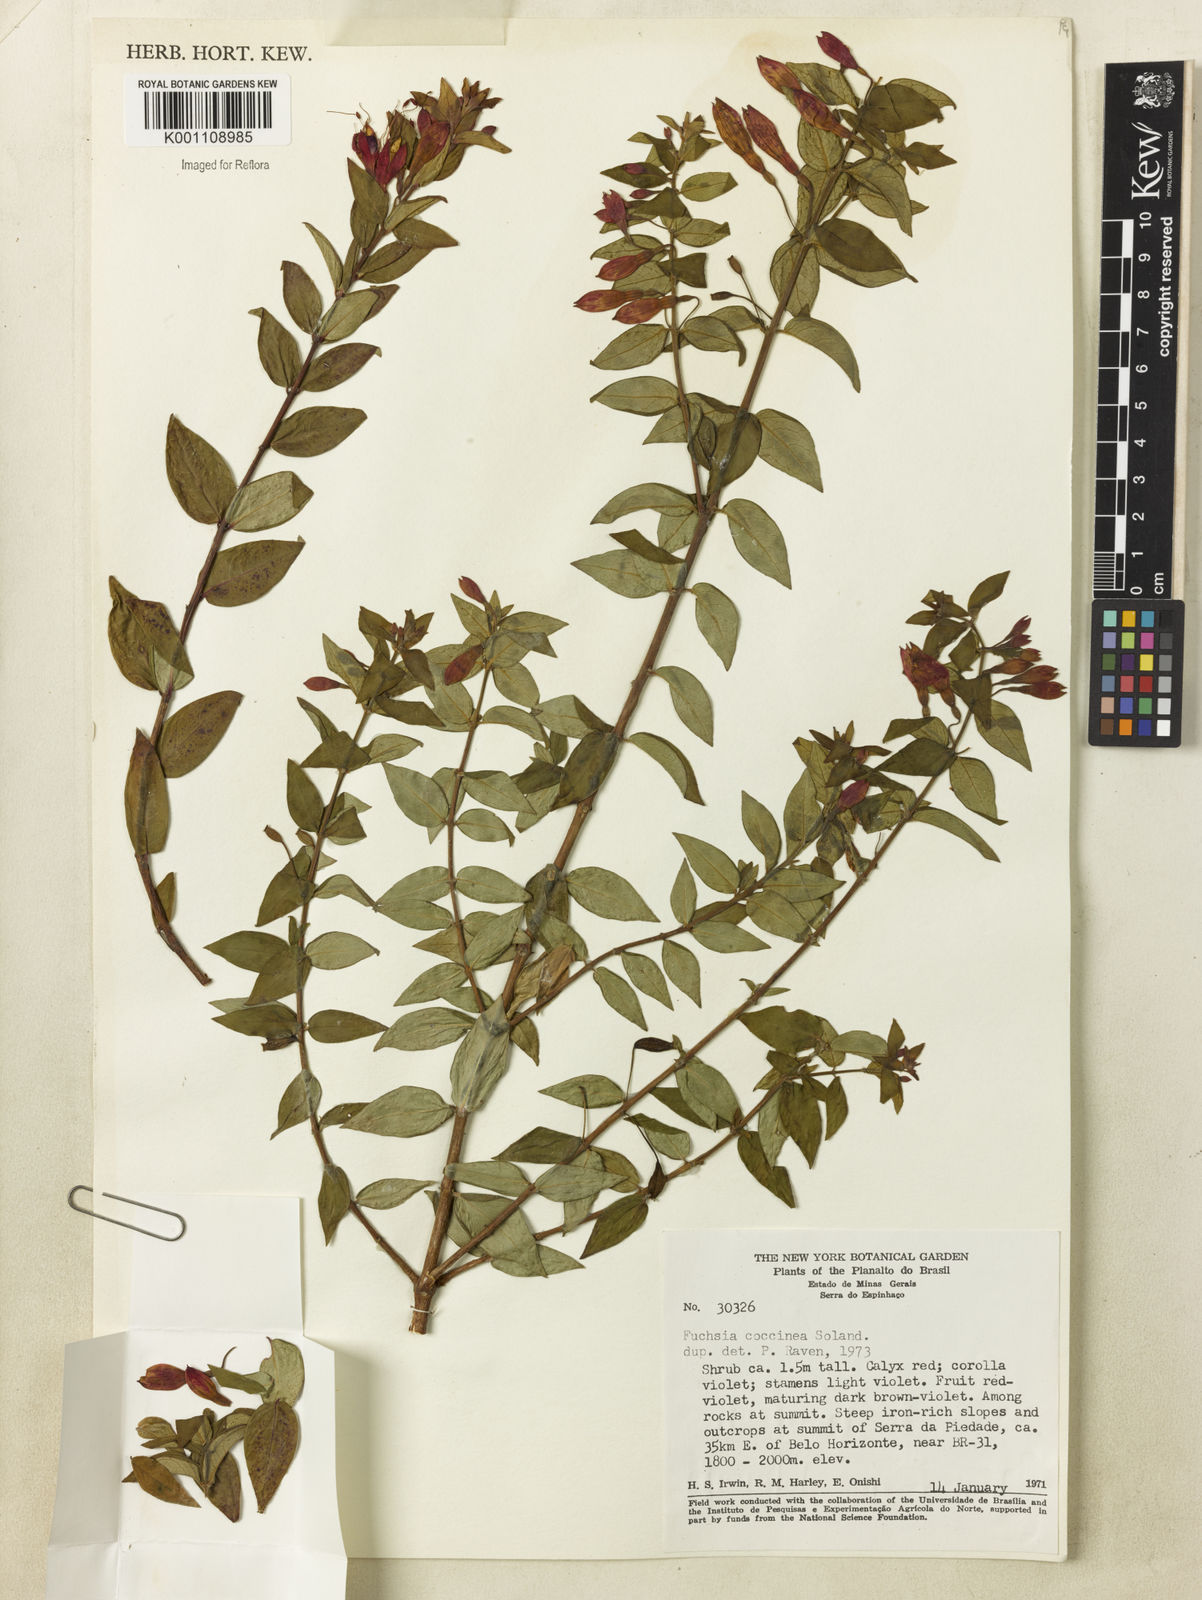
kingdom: Plantae
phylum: Tracheophyta
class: Magnoliopsida
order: Myrtales
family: Onagraceae
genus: Fuchsia
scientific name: Fuchsia
